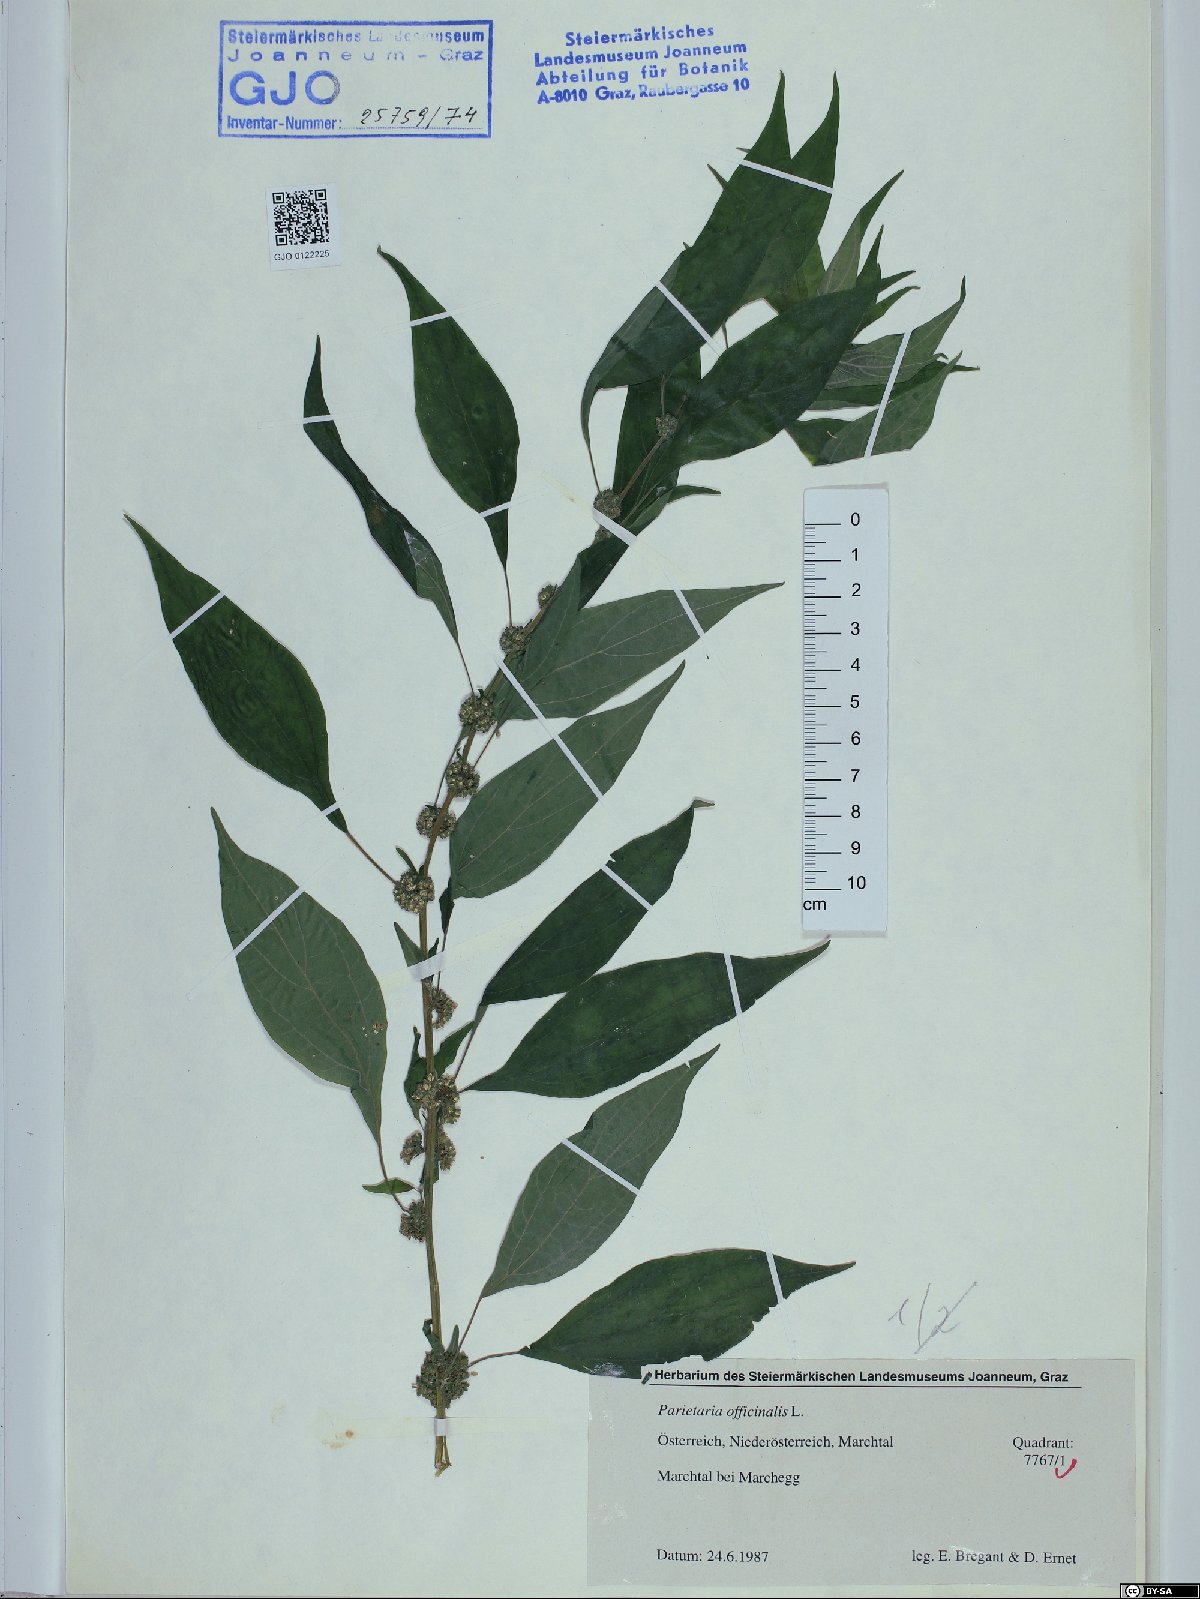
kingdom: Plantae
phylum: Tracheophyta
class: Magnoliopsida
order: Rosales
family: Urticaceae
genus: Parietaria
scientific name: Parietaria officinalis
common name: Eastern pellitory-of-the-wall
